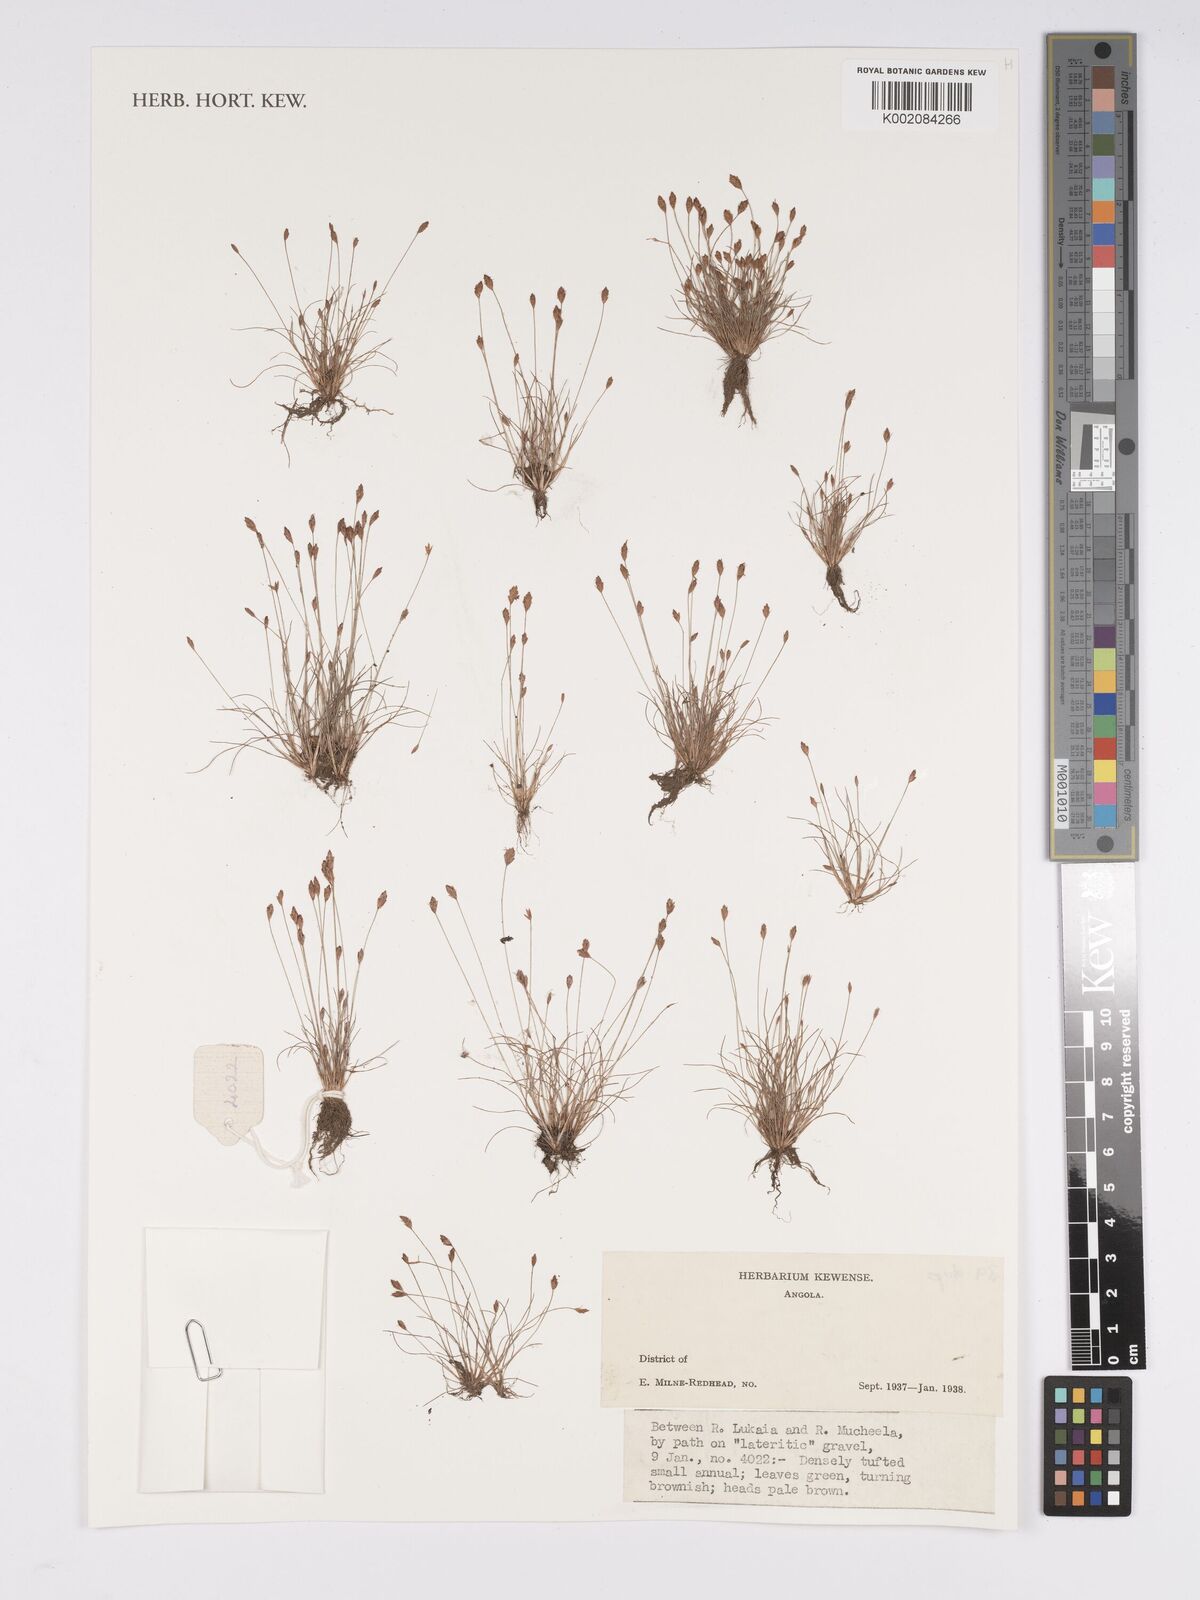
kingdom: Plantae
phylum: Tracheophyta
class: Liliopsida
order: Poales
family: Cyperaceae
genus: Bulbostylis
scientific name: Bulbostylis
